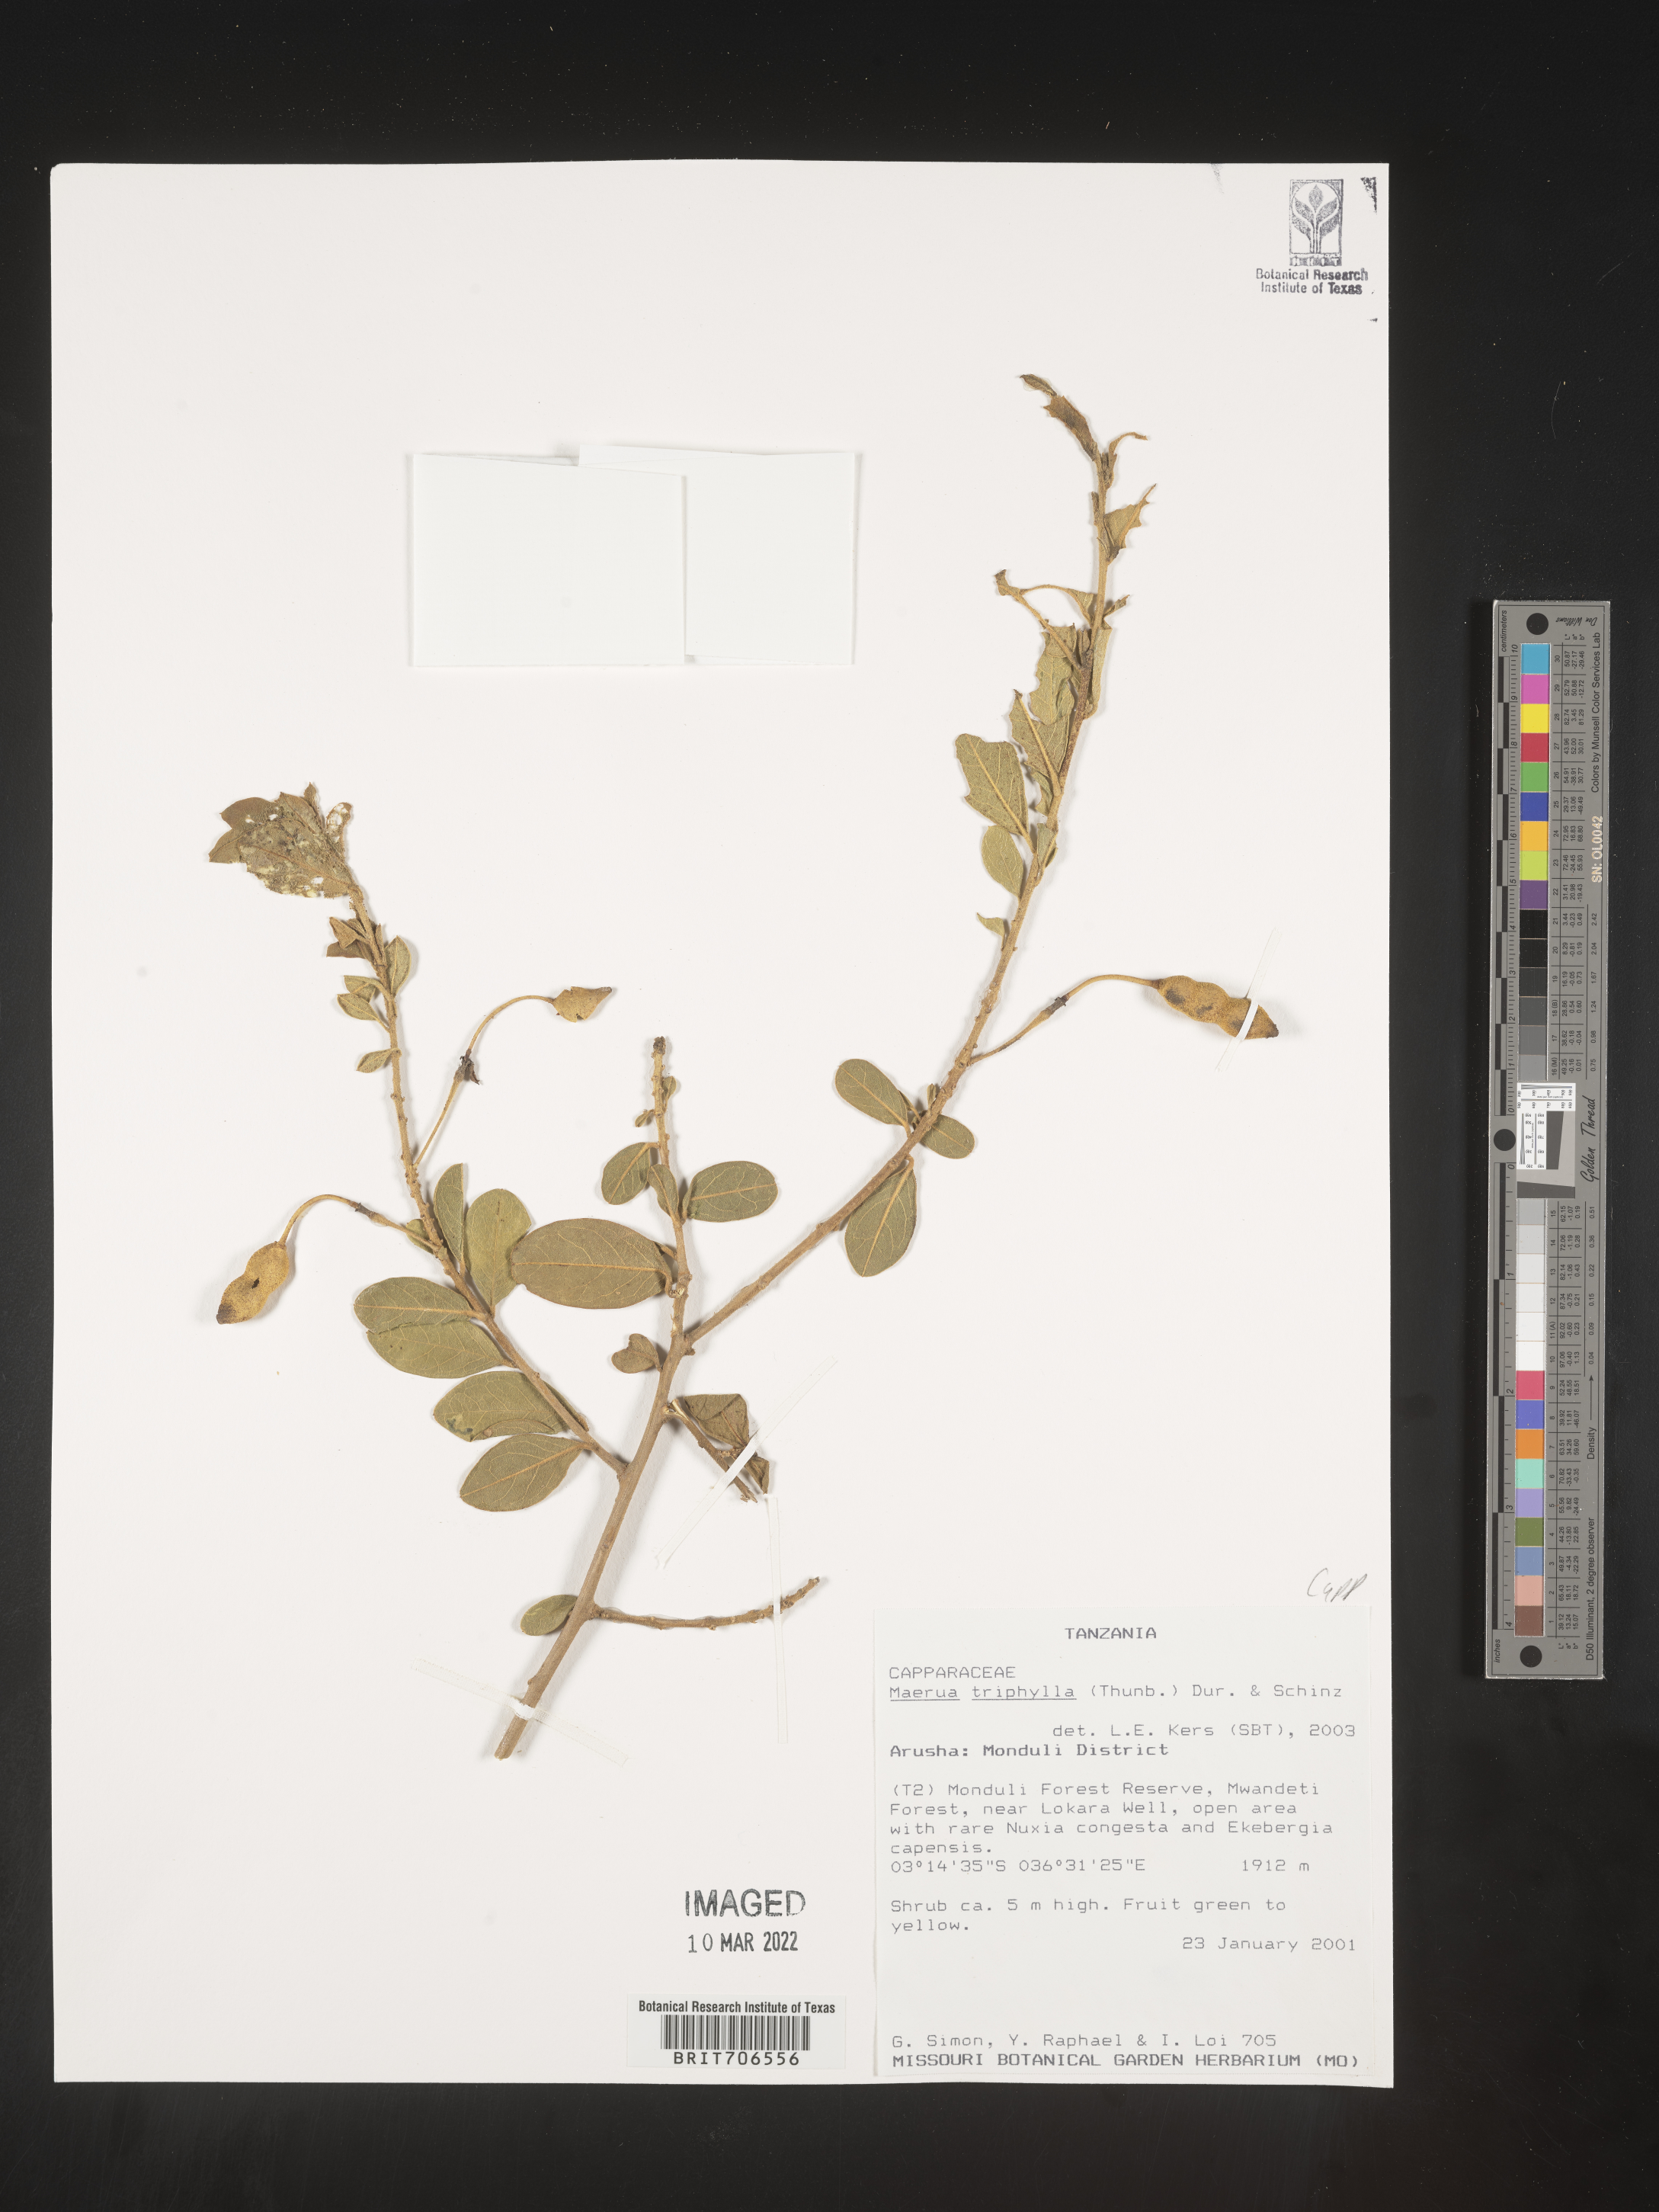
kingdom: Plantae
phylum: Tracheophyta
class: Magnoliopsida
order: Brassicales
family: Capparaceae
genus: Maerua
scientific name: Maerua
